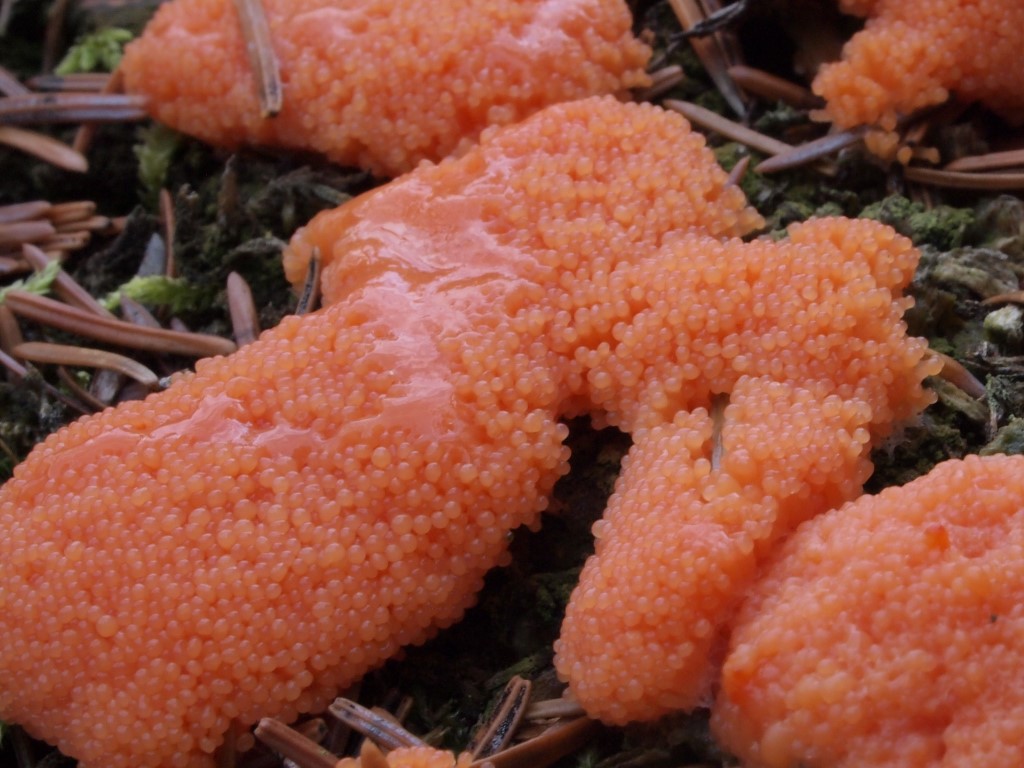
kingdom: Protozoa
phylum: Mycetozoa
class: Myxomycetes
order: Cribrariales
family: Tubiferaceae
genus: Tubifera
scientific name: Tubifera ferruginosa
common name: kanel-støvrør
